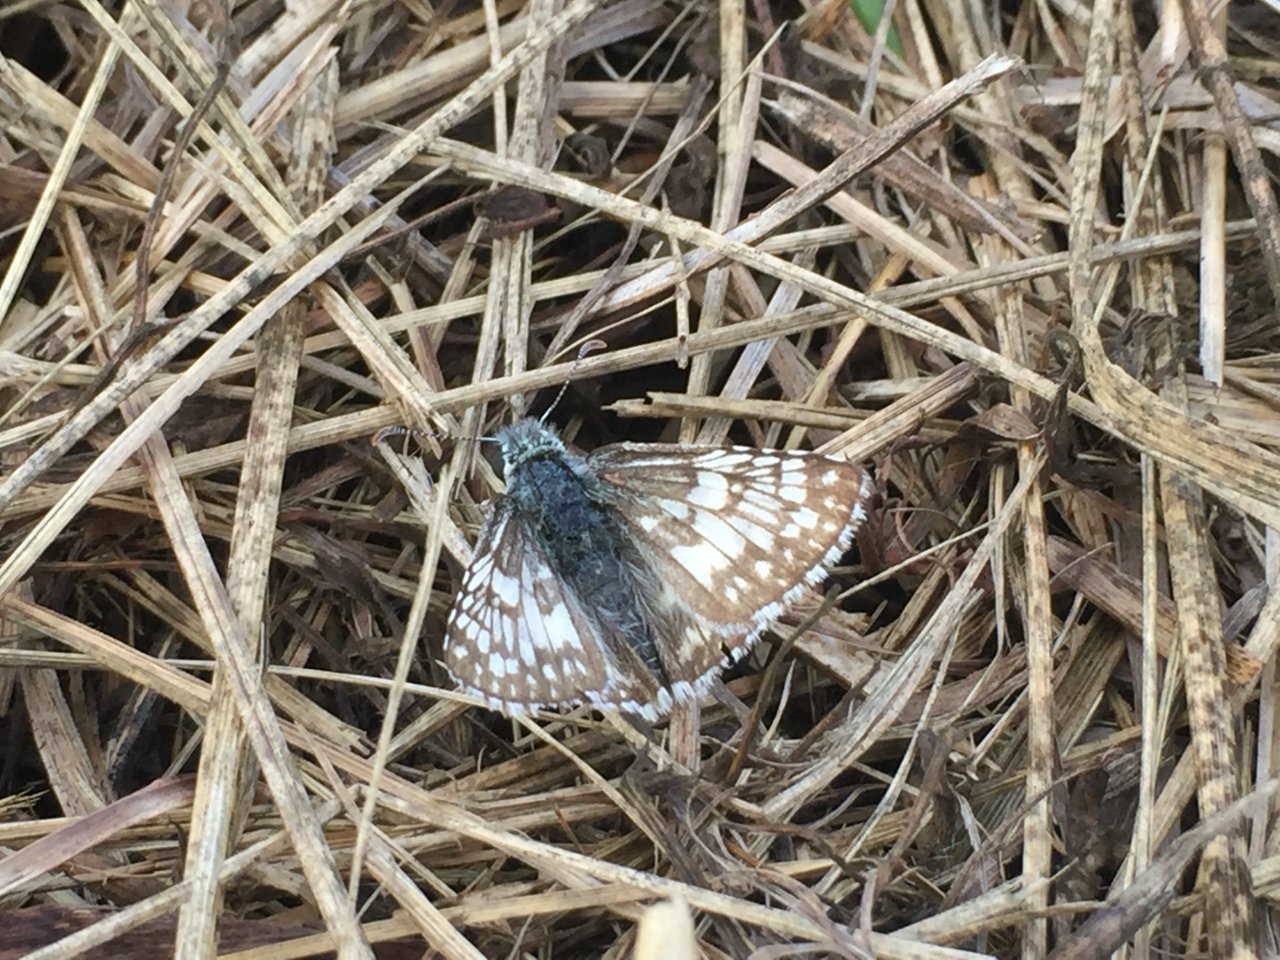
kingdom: Animalia
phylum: Arthropoda
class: Insecta
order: Lepidoptera
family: Hesperiidae
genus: Pyrgus
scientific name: Pyrgus communis
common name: Common Checkered-Skipper
